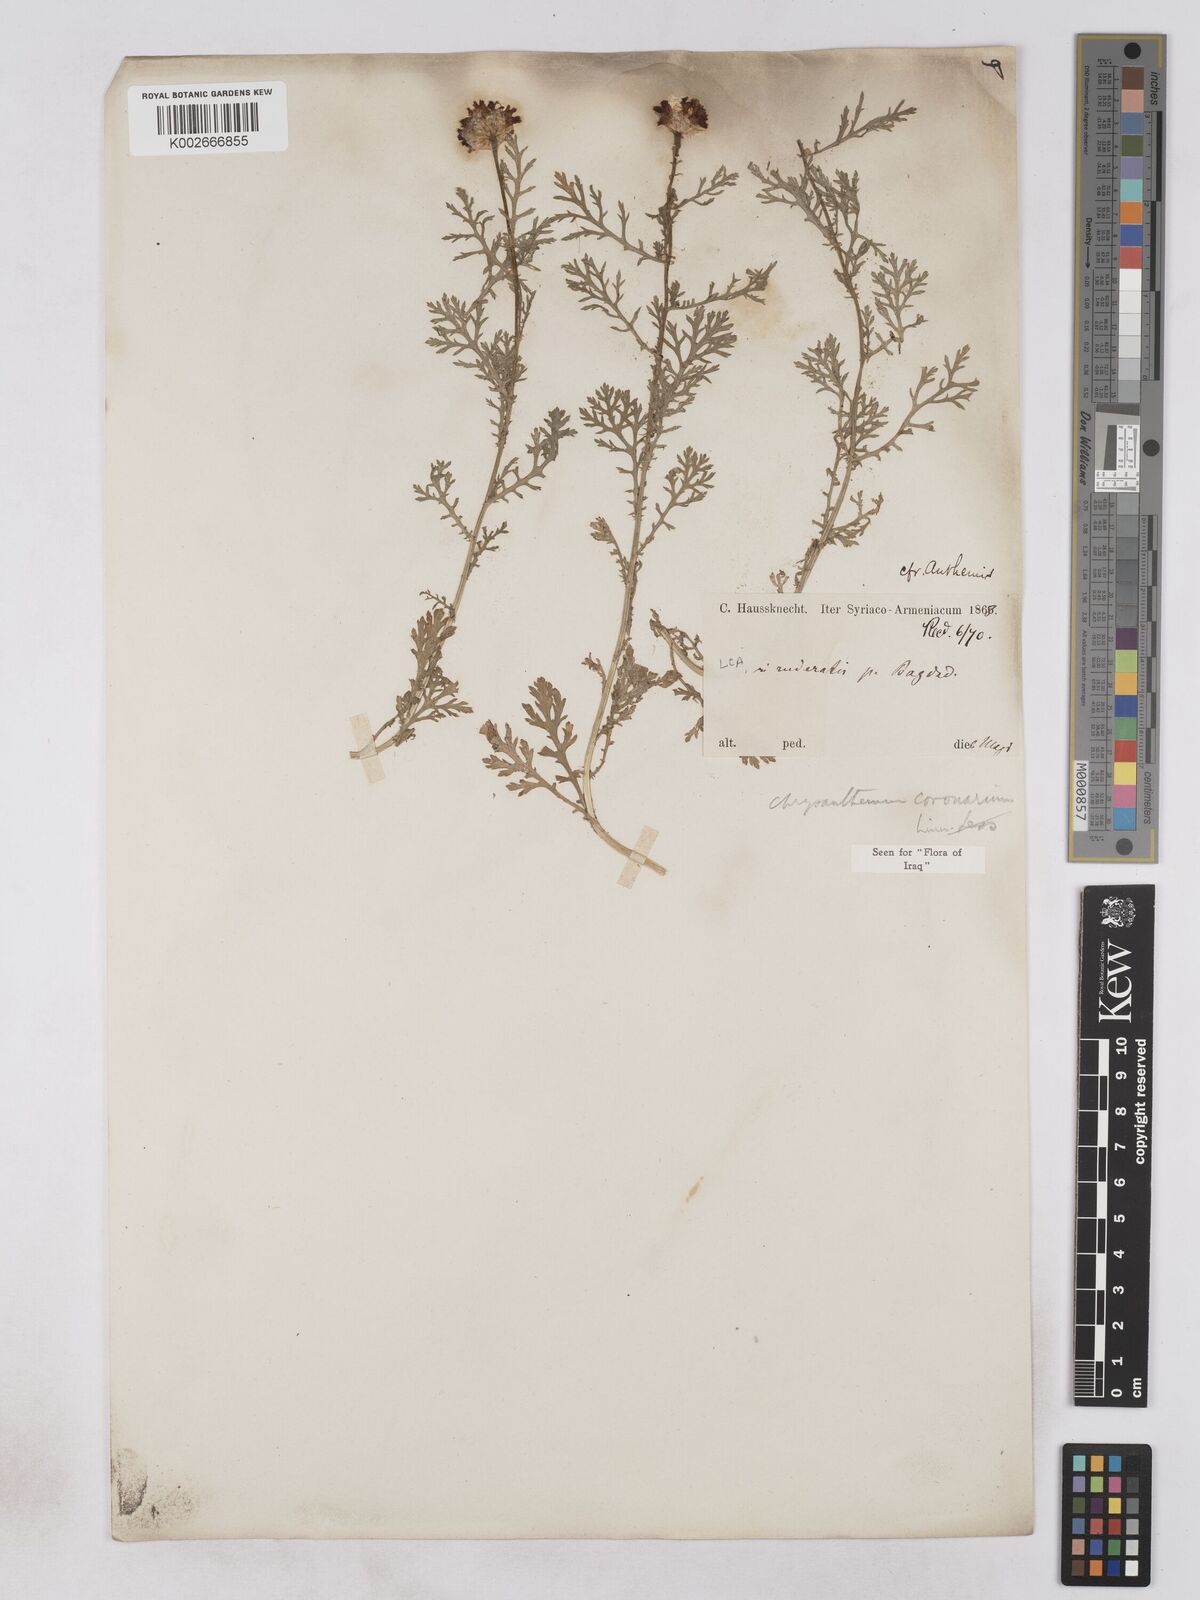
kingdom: Plantae
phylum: Tracheophyta
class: Magnoliopsida
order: Asterales
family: Asteraceae
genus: Glebionis
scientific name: Glebionis coronaria
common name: Crowndaisy
